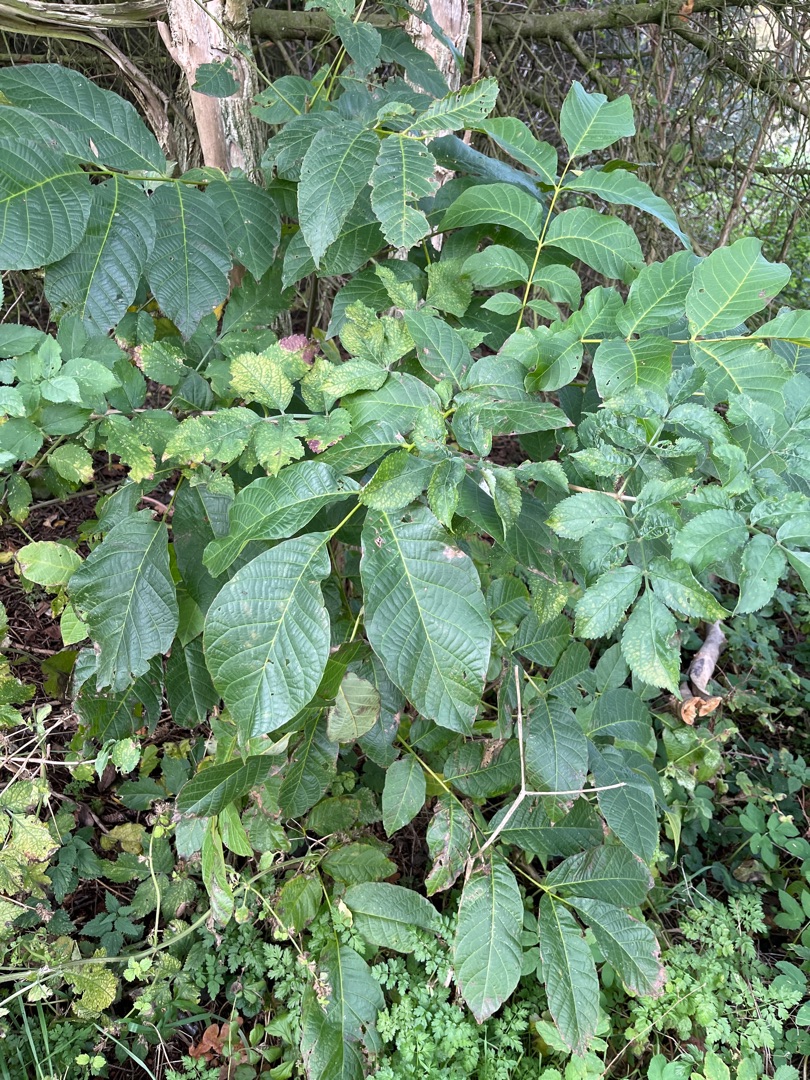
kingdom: Plantae
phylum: Tracheophyta
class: Magnoliopsida
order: Fagales
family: Juglandaceae
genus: Juglans
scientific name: Juglans regia
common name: Almindelig valnød
